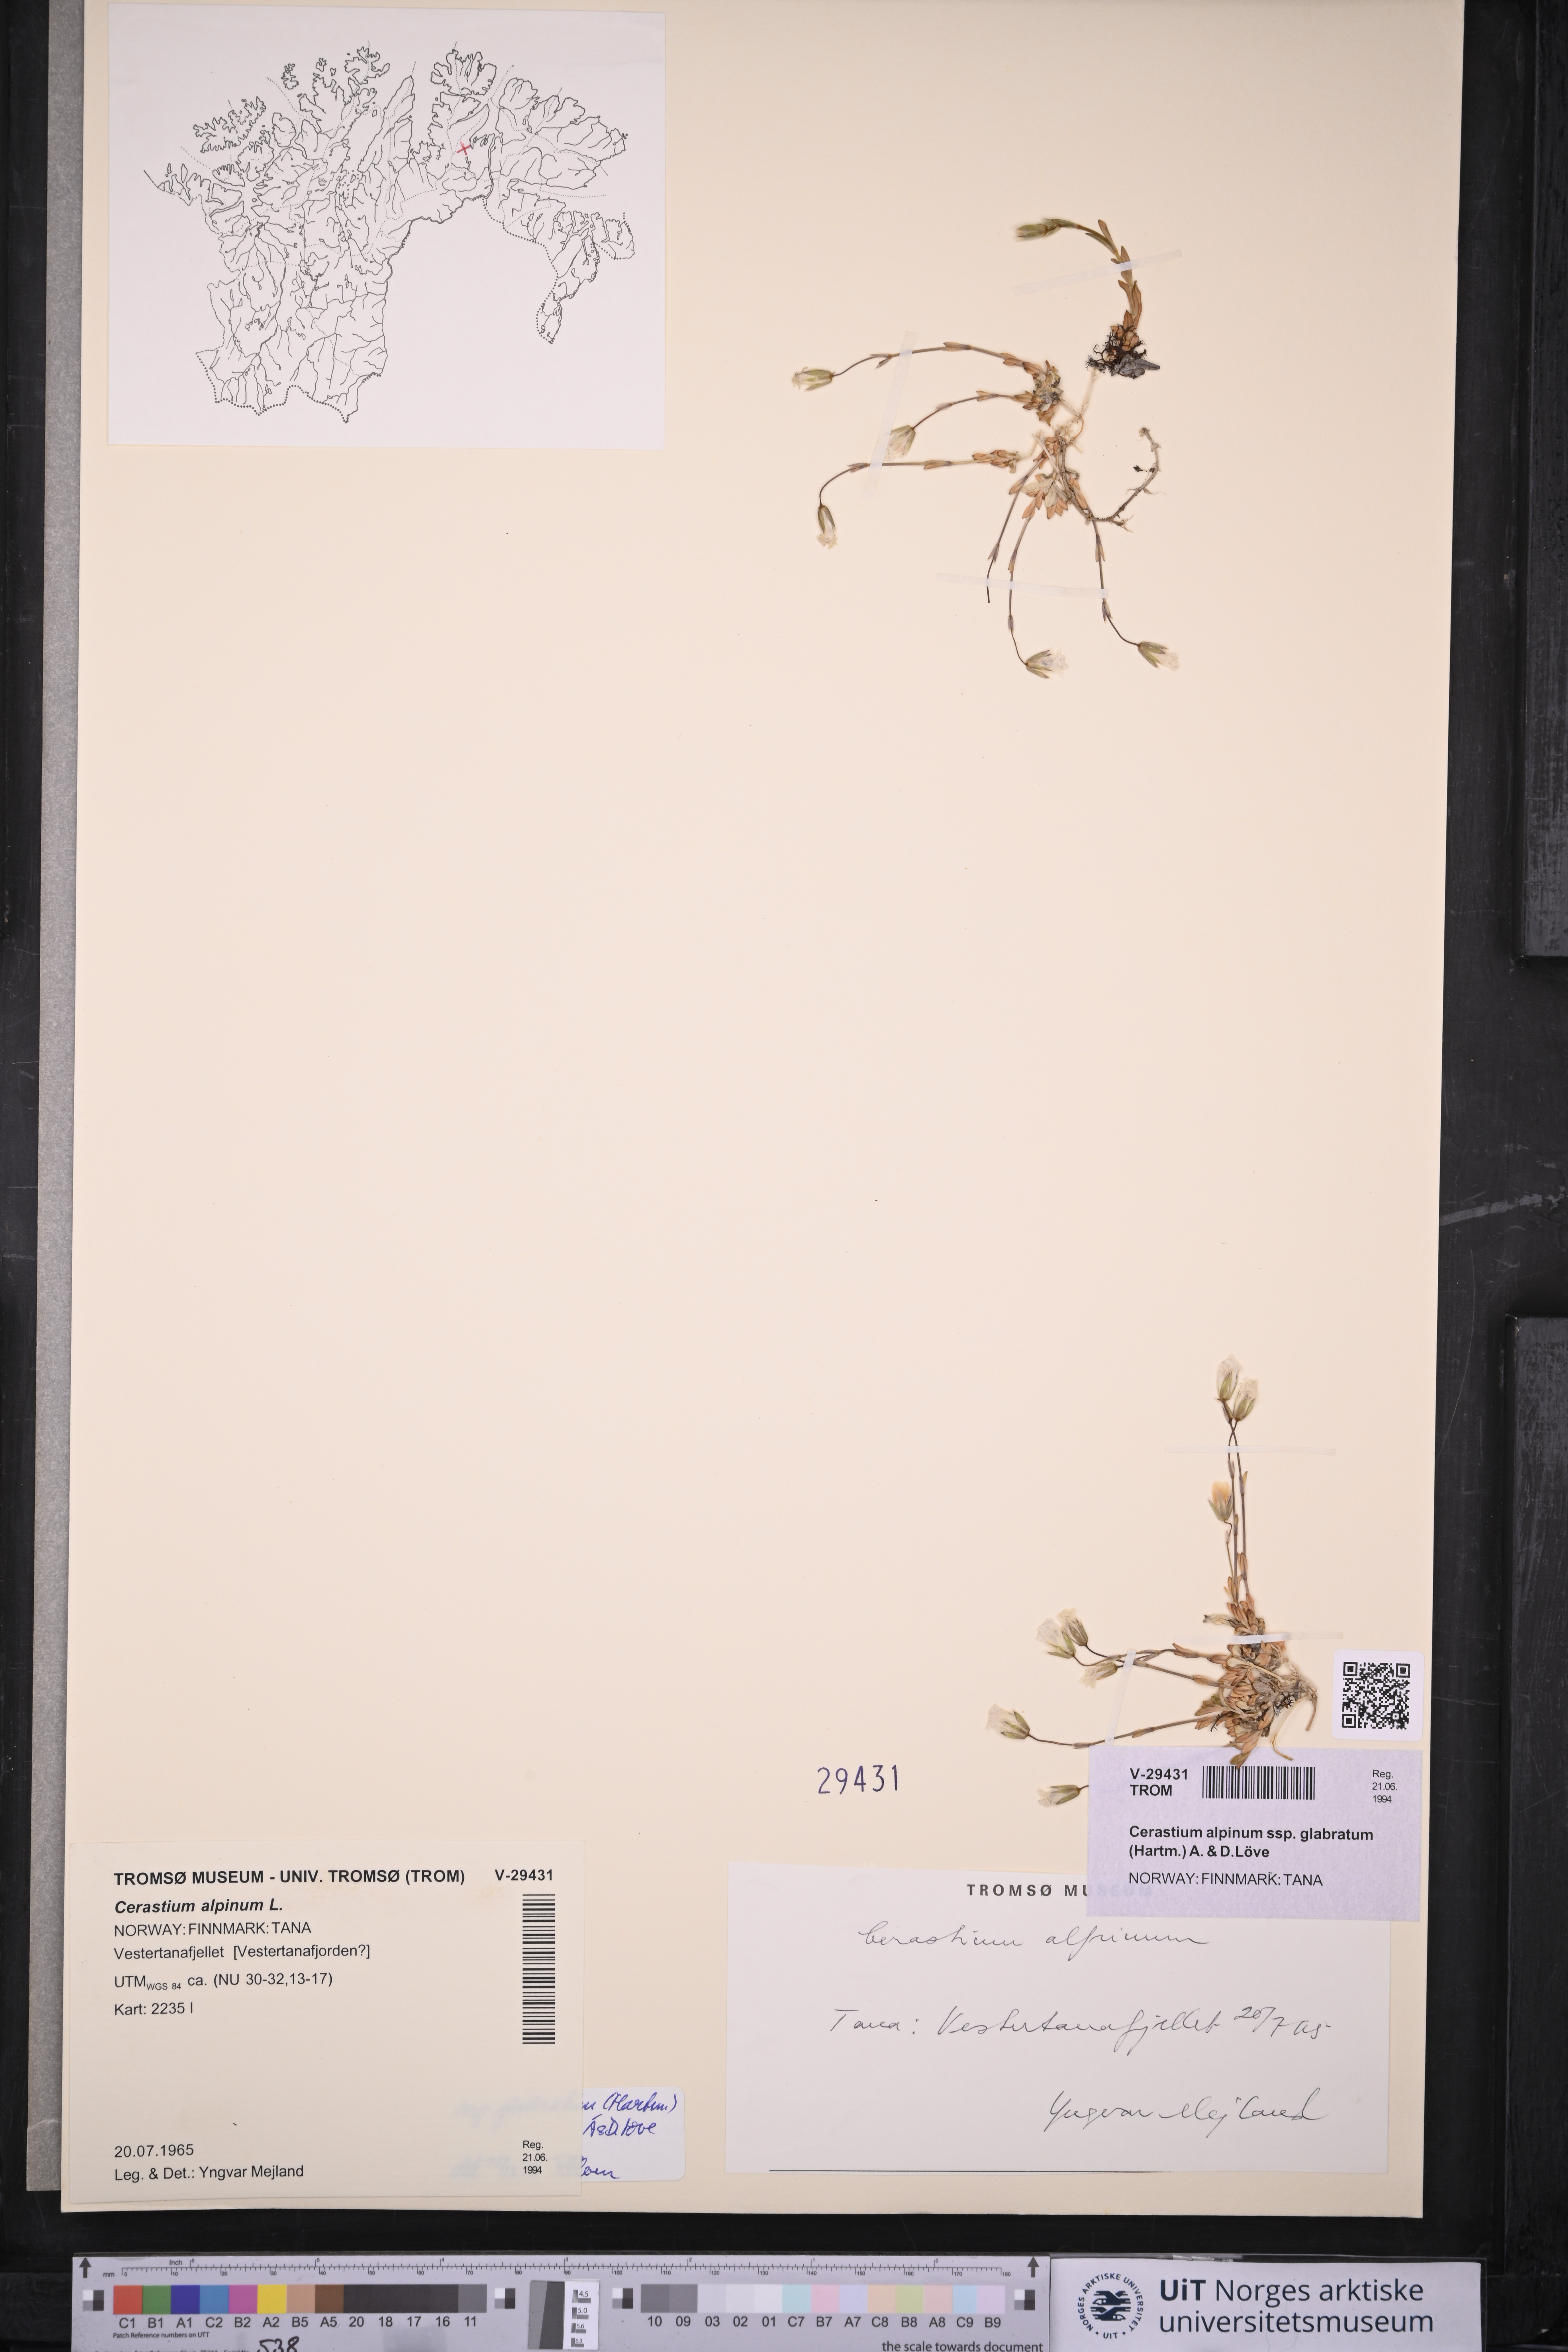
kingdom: Plantae
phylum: Tracheophyta
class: Magnoliopsida
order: Caryophyllales
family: Caryophyllaceae
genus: Cerastium
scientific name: Cerastium alpinum
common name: Alpine mouse-ear
